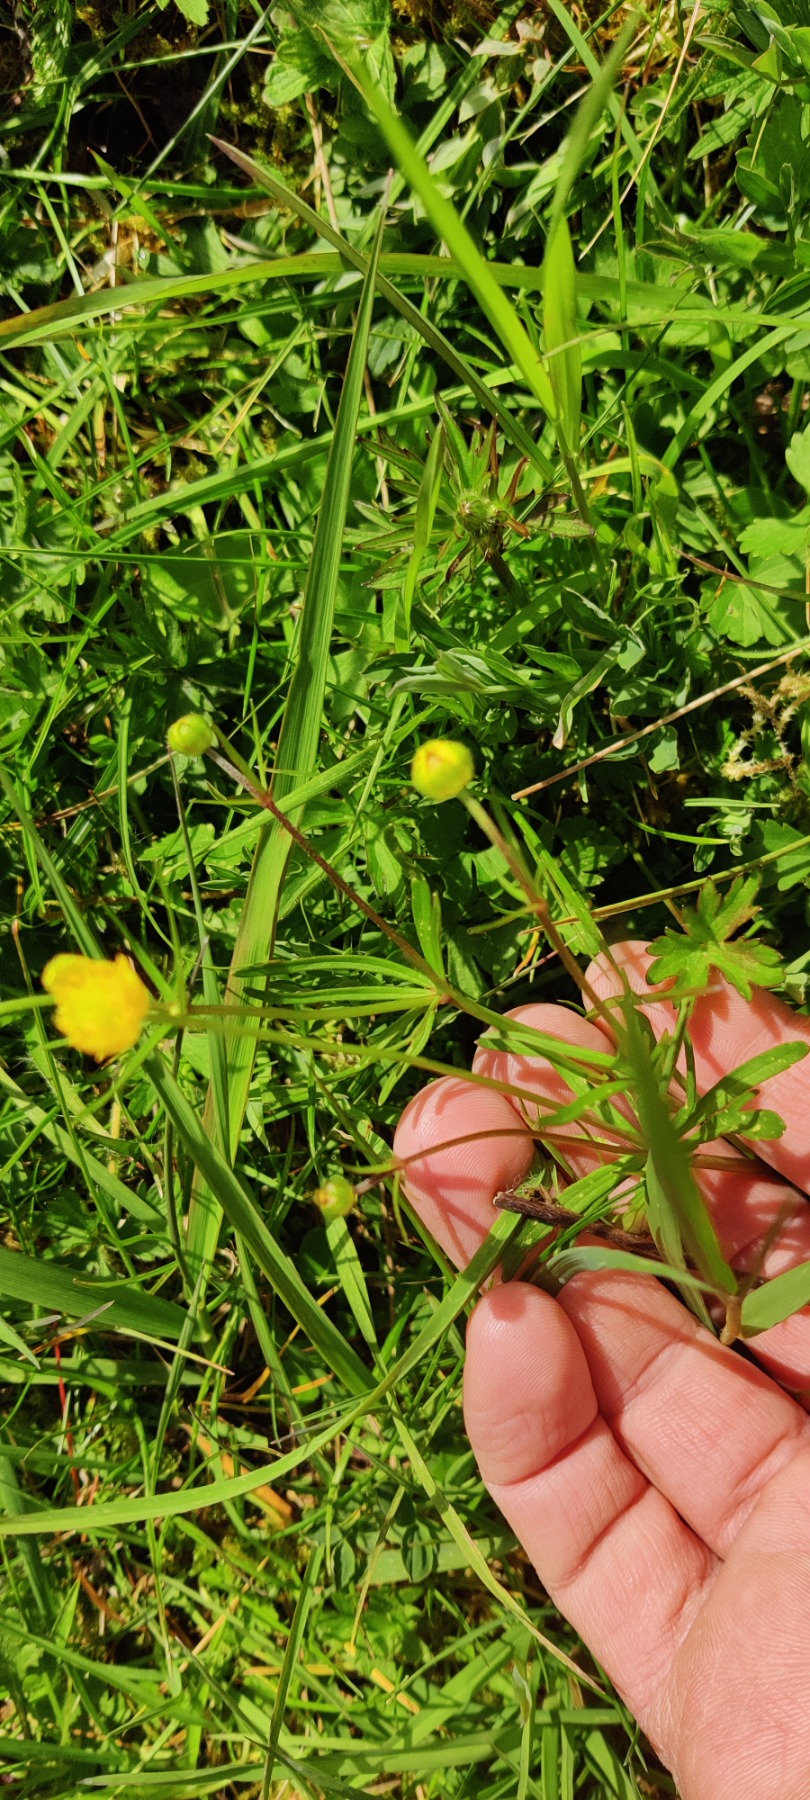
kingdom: Plantae
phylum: Tracheophyta
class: Magnoliopsida
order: Ranunculales
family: Ranunculaceae
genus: Ranunculus
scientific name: Ranunculus auricomus
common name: Nyrebladet ranunkel
